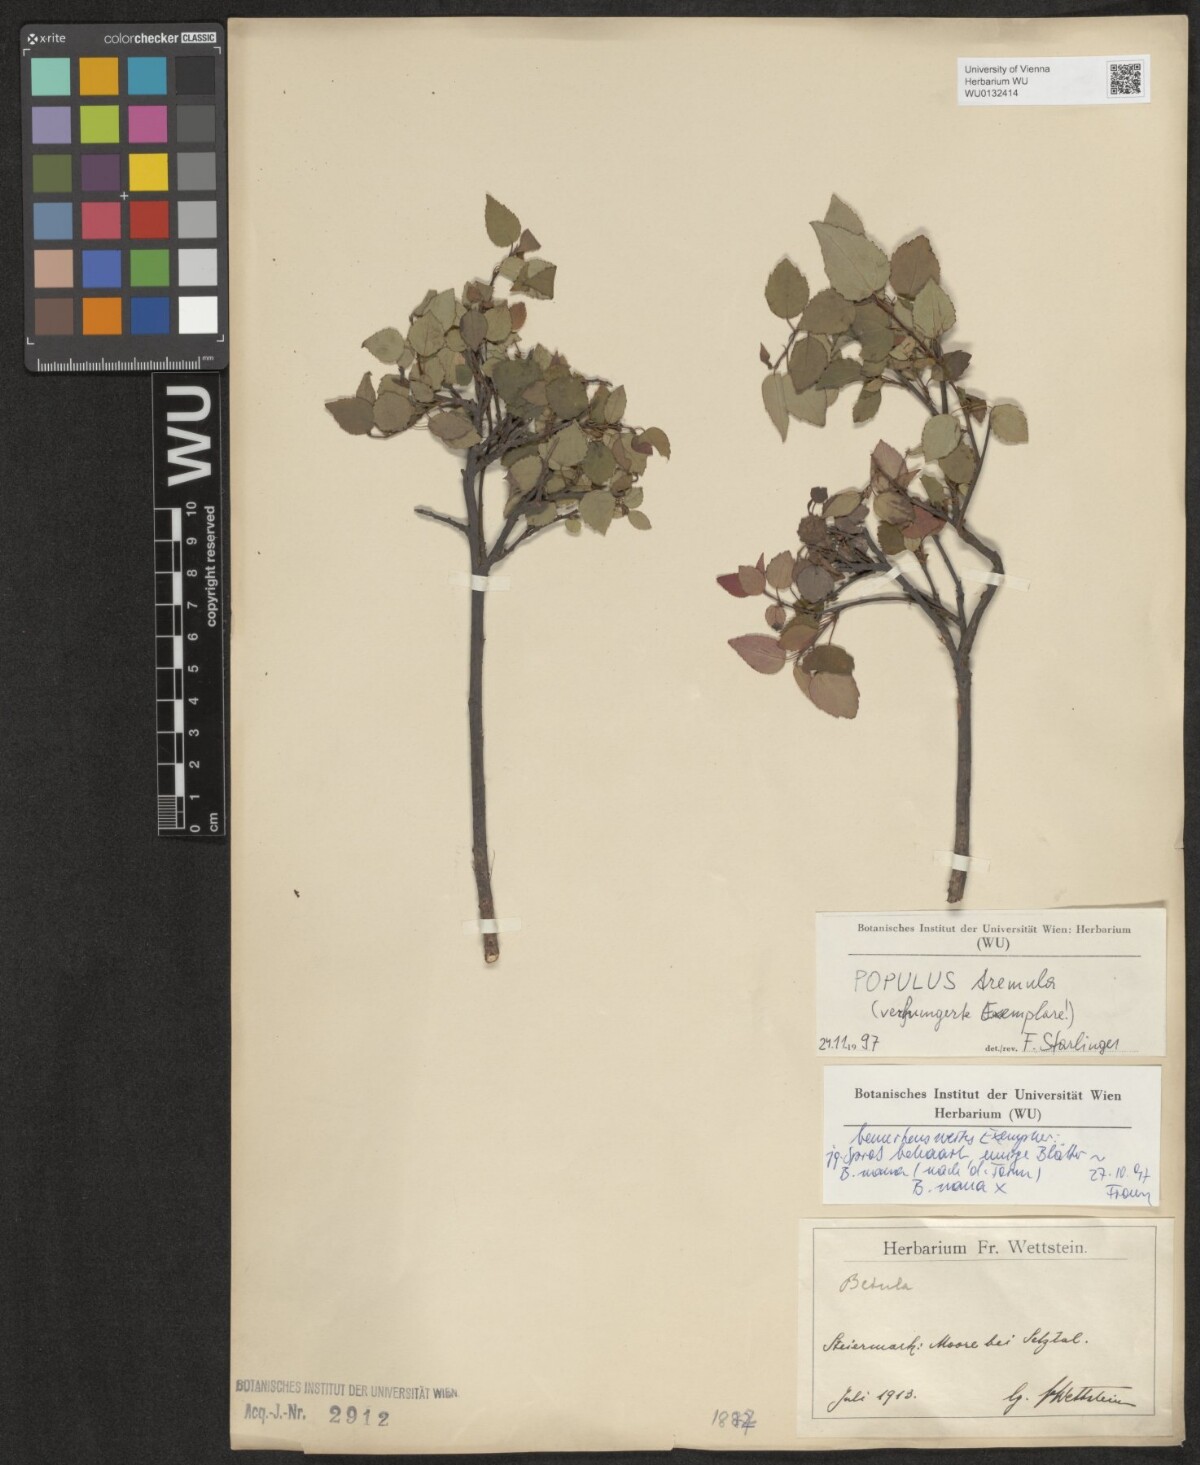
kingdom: Plantae
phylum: Tracheophyta
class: Magnoliopsida
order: Malpighiales
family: Salicaceae
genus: Populus
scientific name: Populus tremula
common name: European aspen
